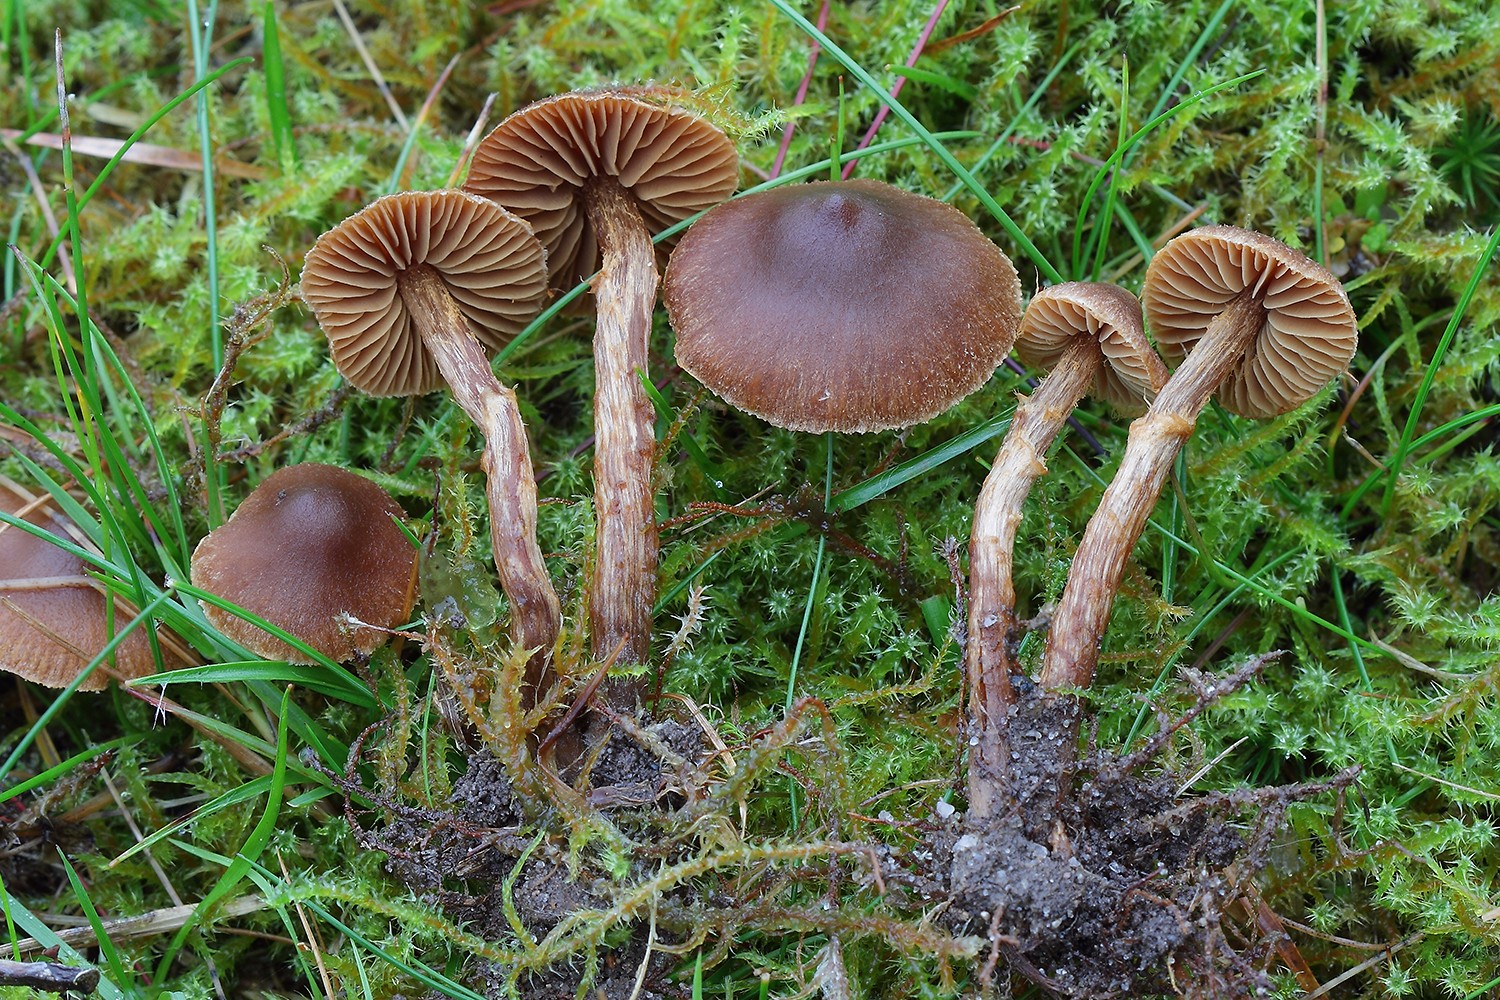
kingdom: Fungi
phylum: Basidiomycota
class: Agaricomycetes
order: Agaricales
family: Cortinariaceae
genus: Cortinarius
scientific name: Cortinarius castaneopallidus
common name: bronzetrævlet slørhat
